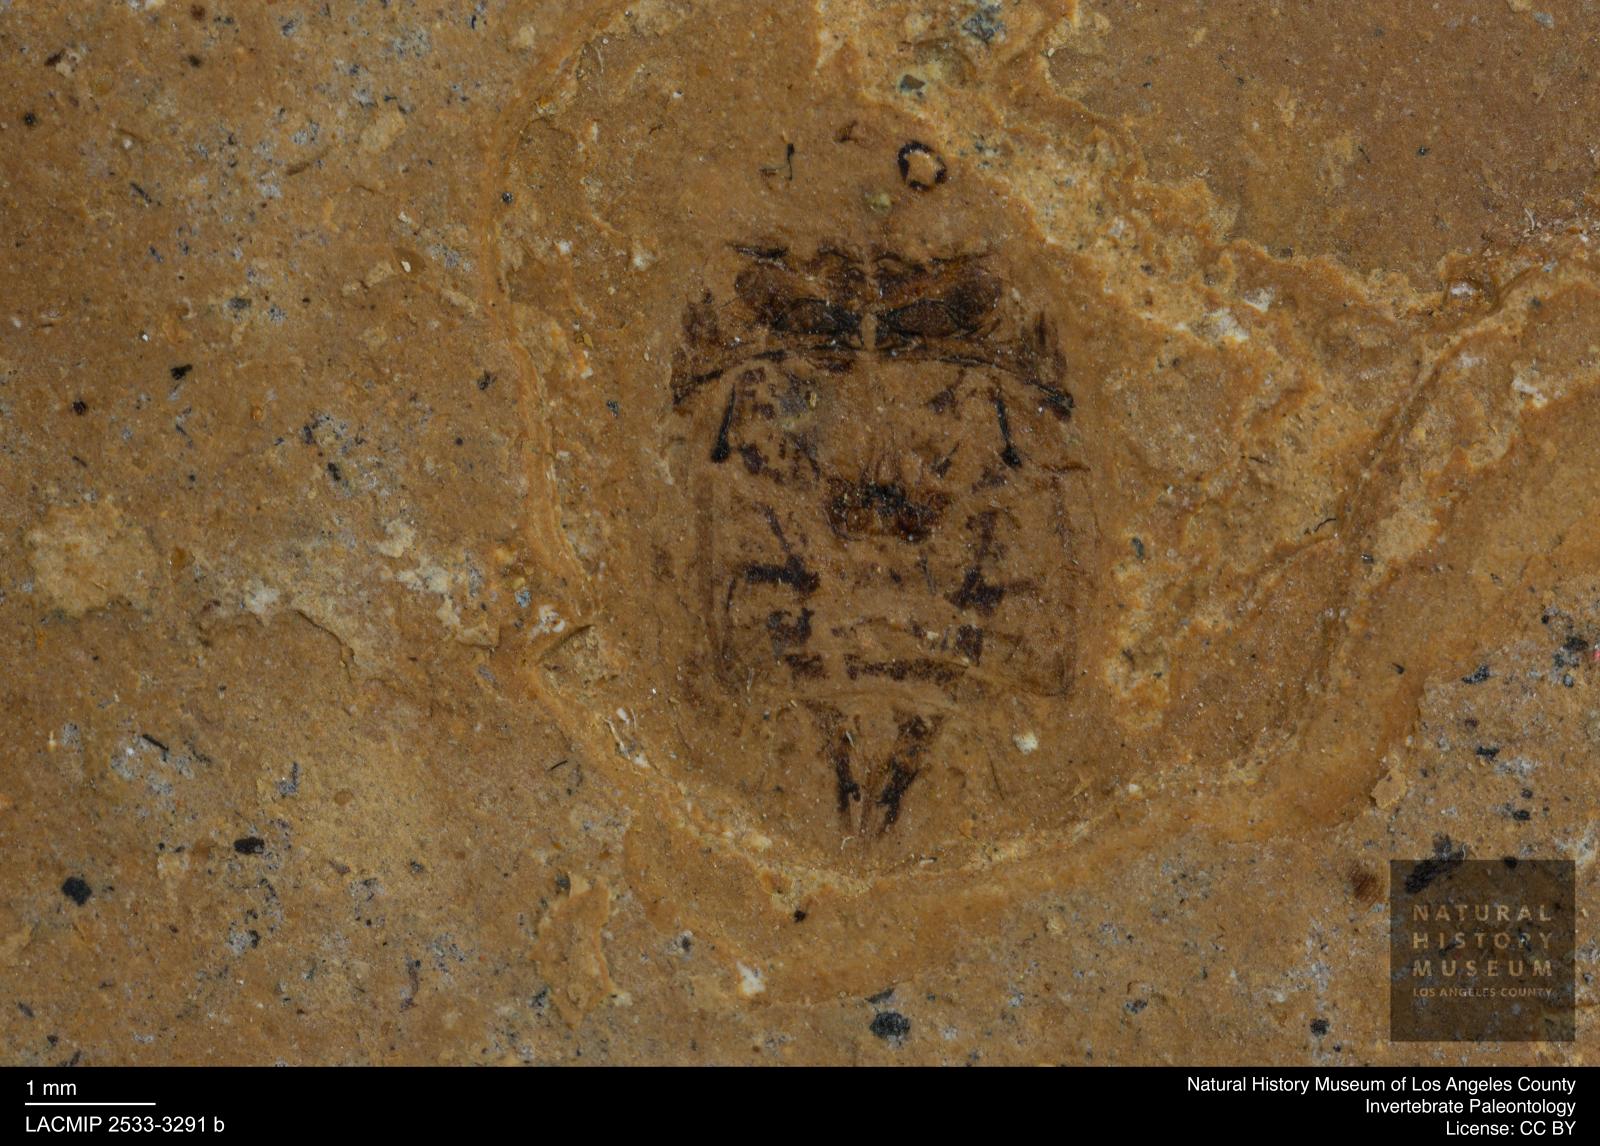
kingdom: Animalia
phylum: Arthropoda
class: Insecta
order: Coleoptera
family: Dytiscidae
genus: Laccophilus
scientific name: Laccophilus Palaeogyrinus strigatus
